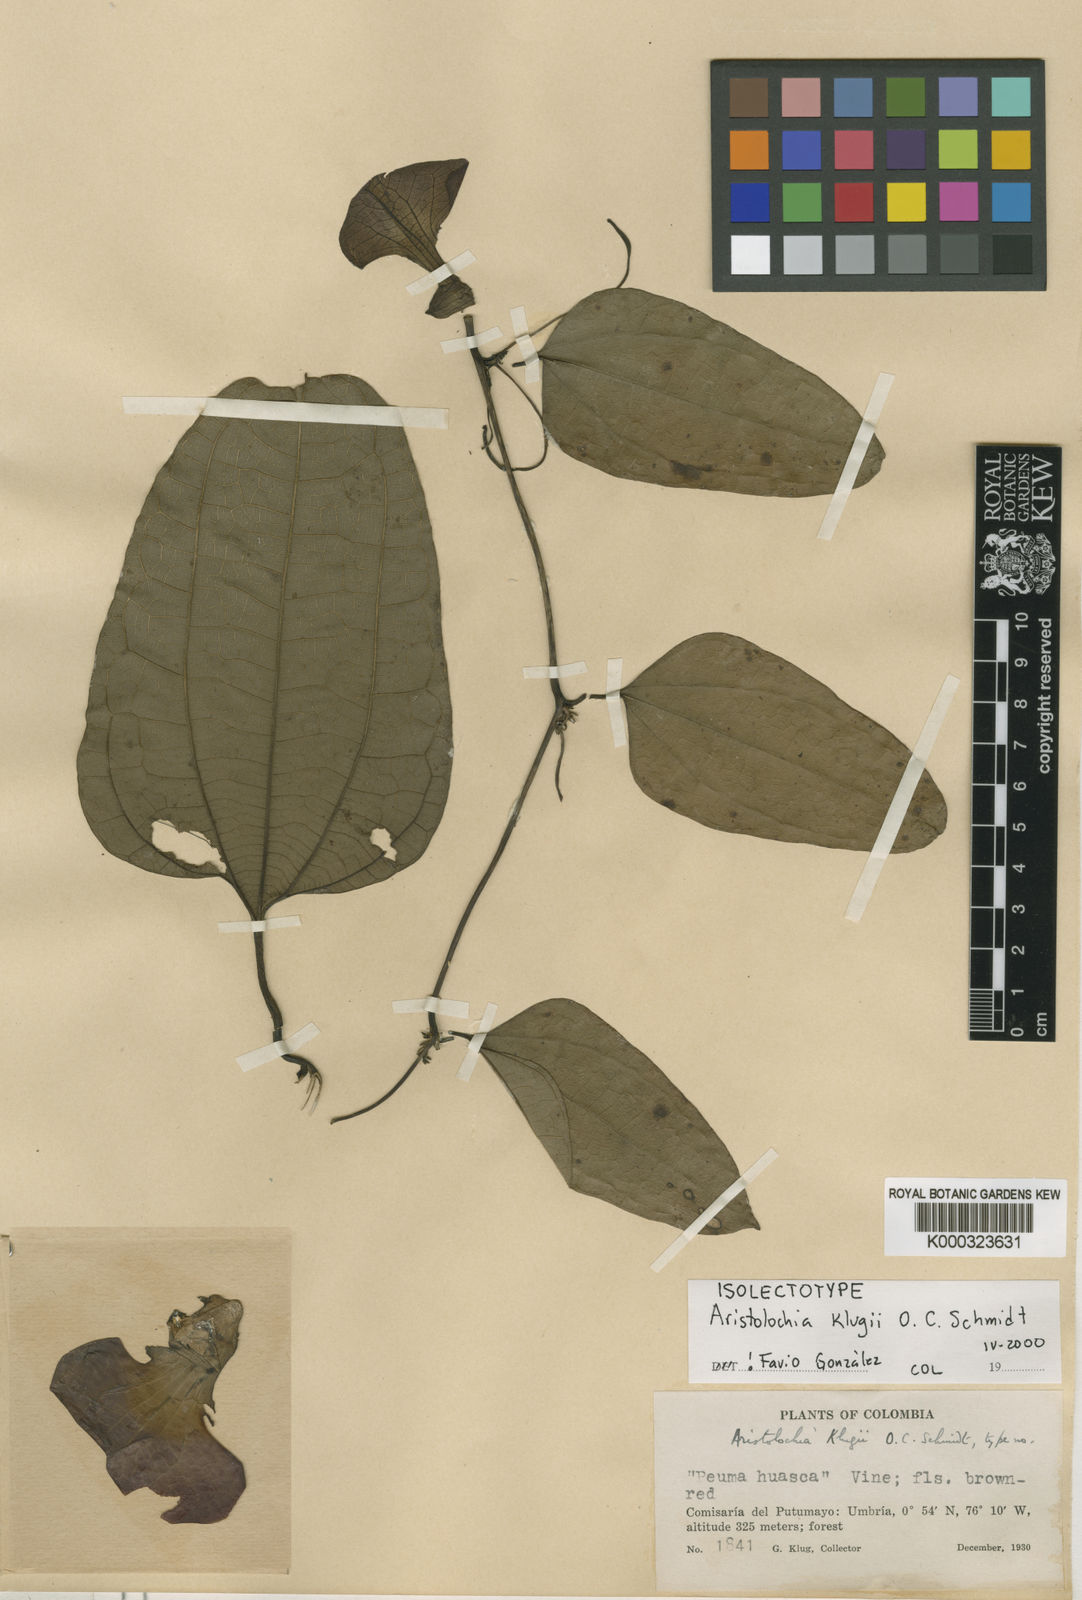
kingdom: Plantae
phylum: Tracheophyta
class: Magnoliopsida
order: Piperales
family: Aristolochiaceae
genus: Aristolochia
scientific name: Aristolochia klugii
